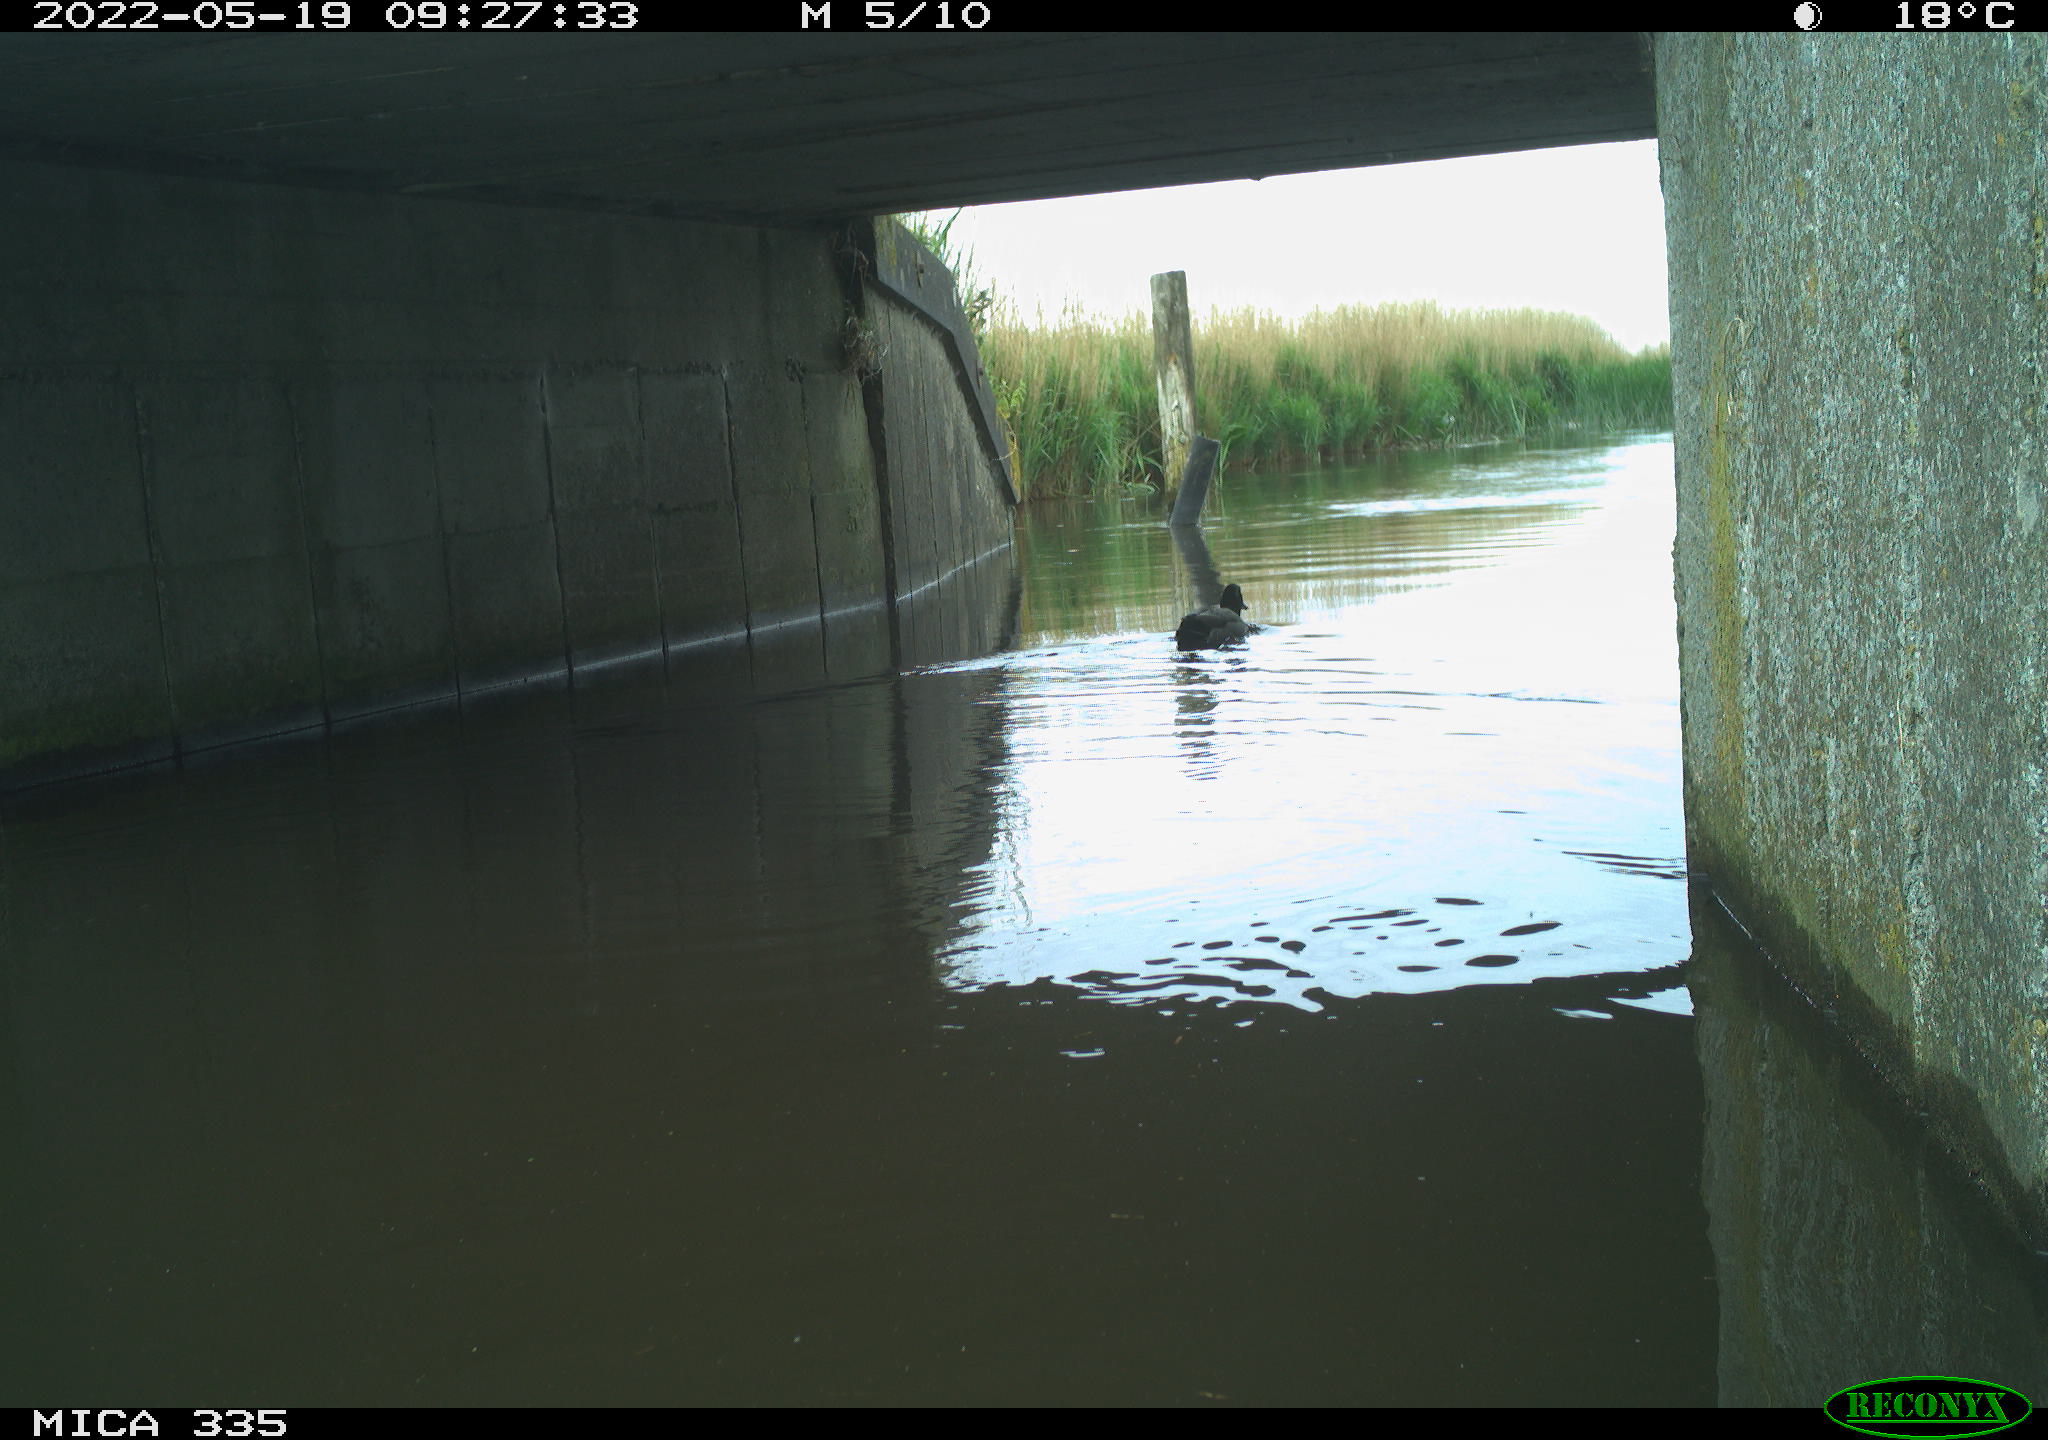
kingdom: Animalia
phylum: Chordata
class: Aves
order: Anseriformes
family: Anatidae
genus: Anas
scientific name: Anas platyrhynchos
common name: Mallard
